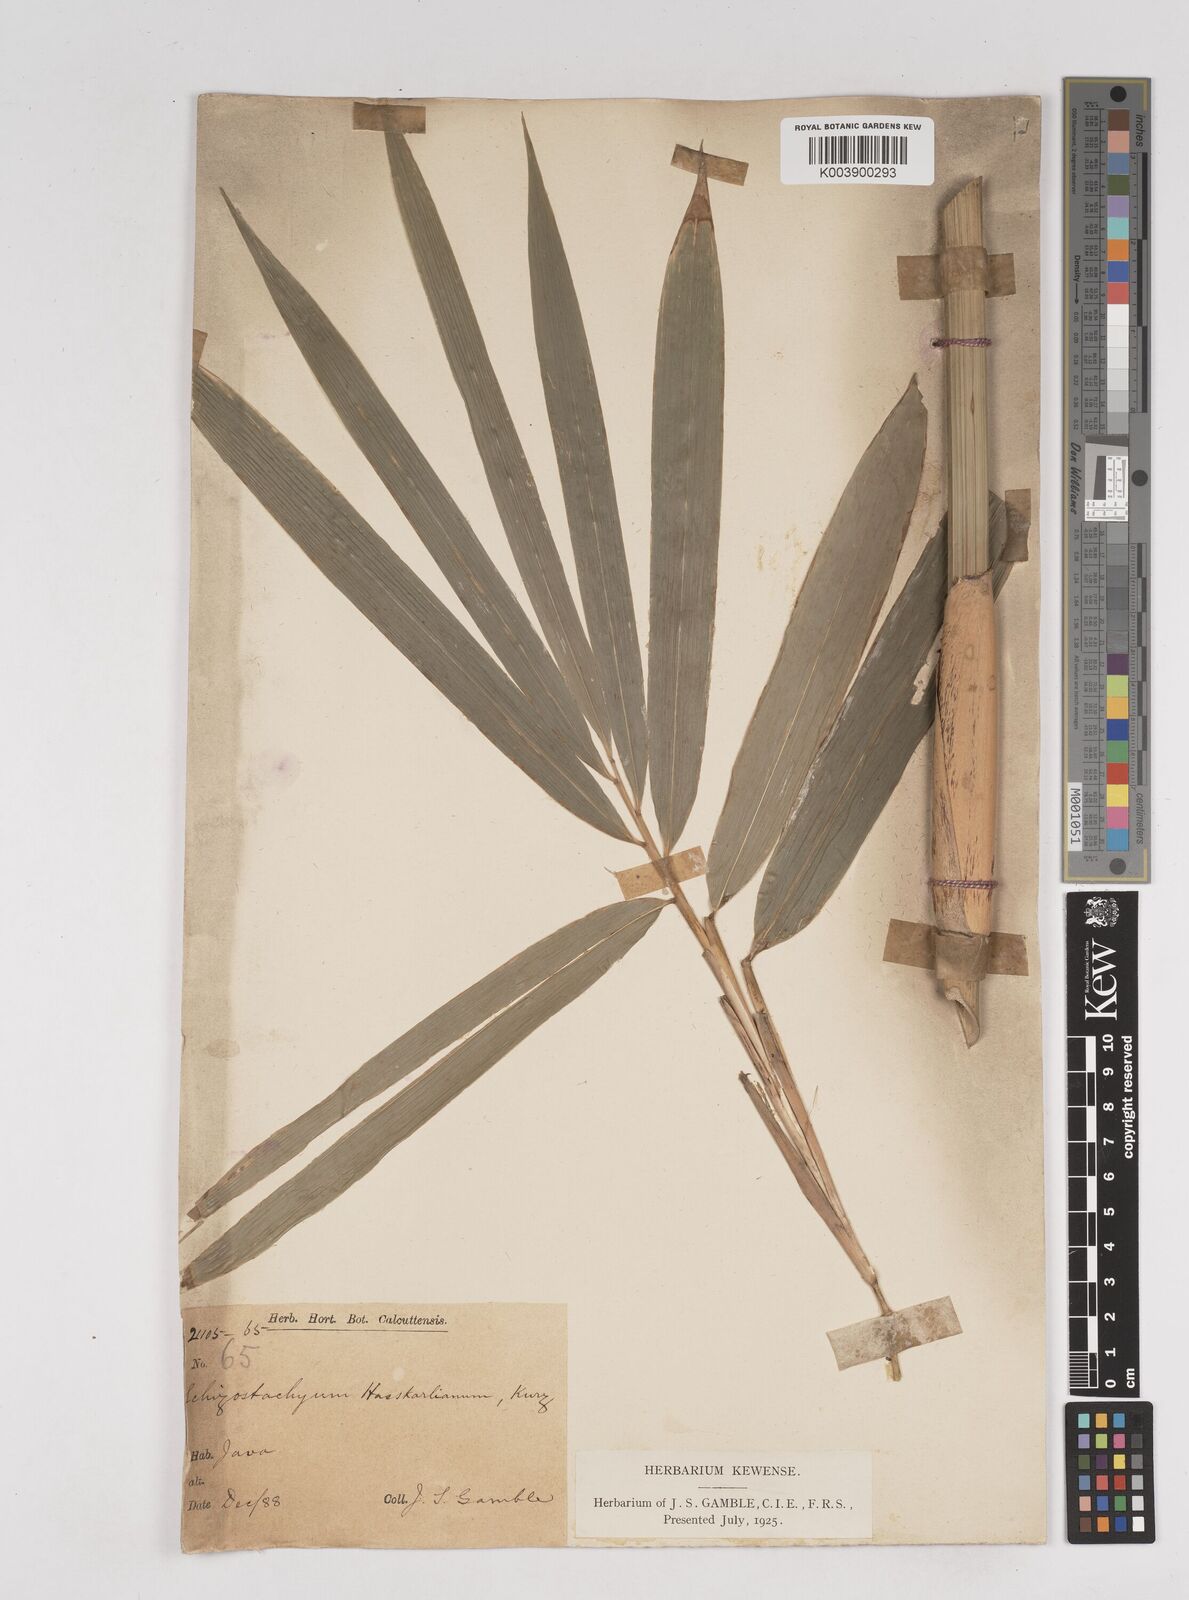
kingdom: Plantae
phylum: Tracheophyta
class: Liliopsida
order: Poales
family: Poaceae
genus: Gigantochloa
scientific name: Gigantochloa hasskarliana
